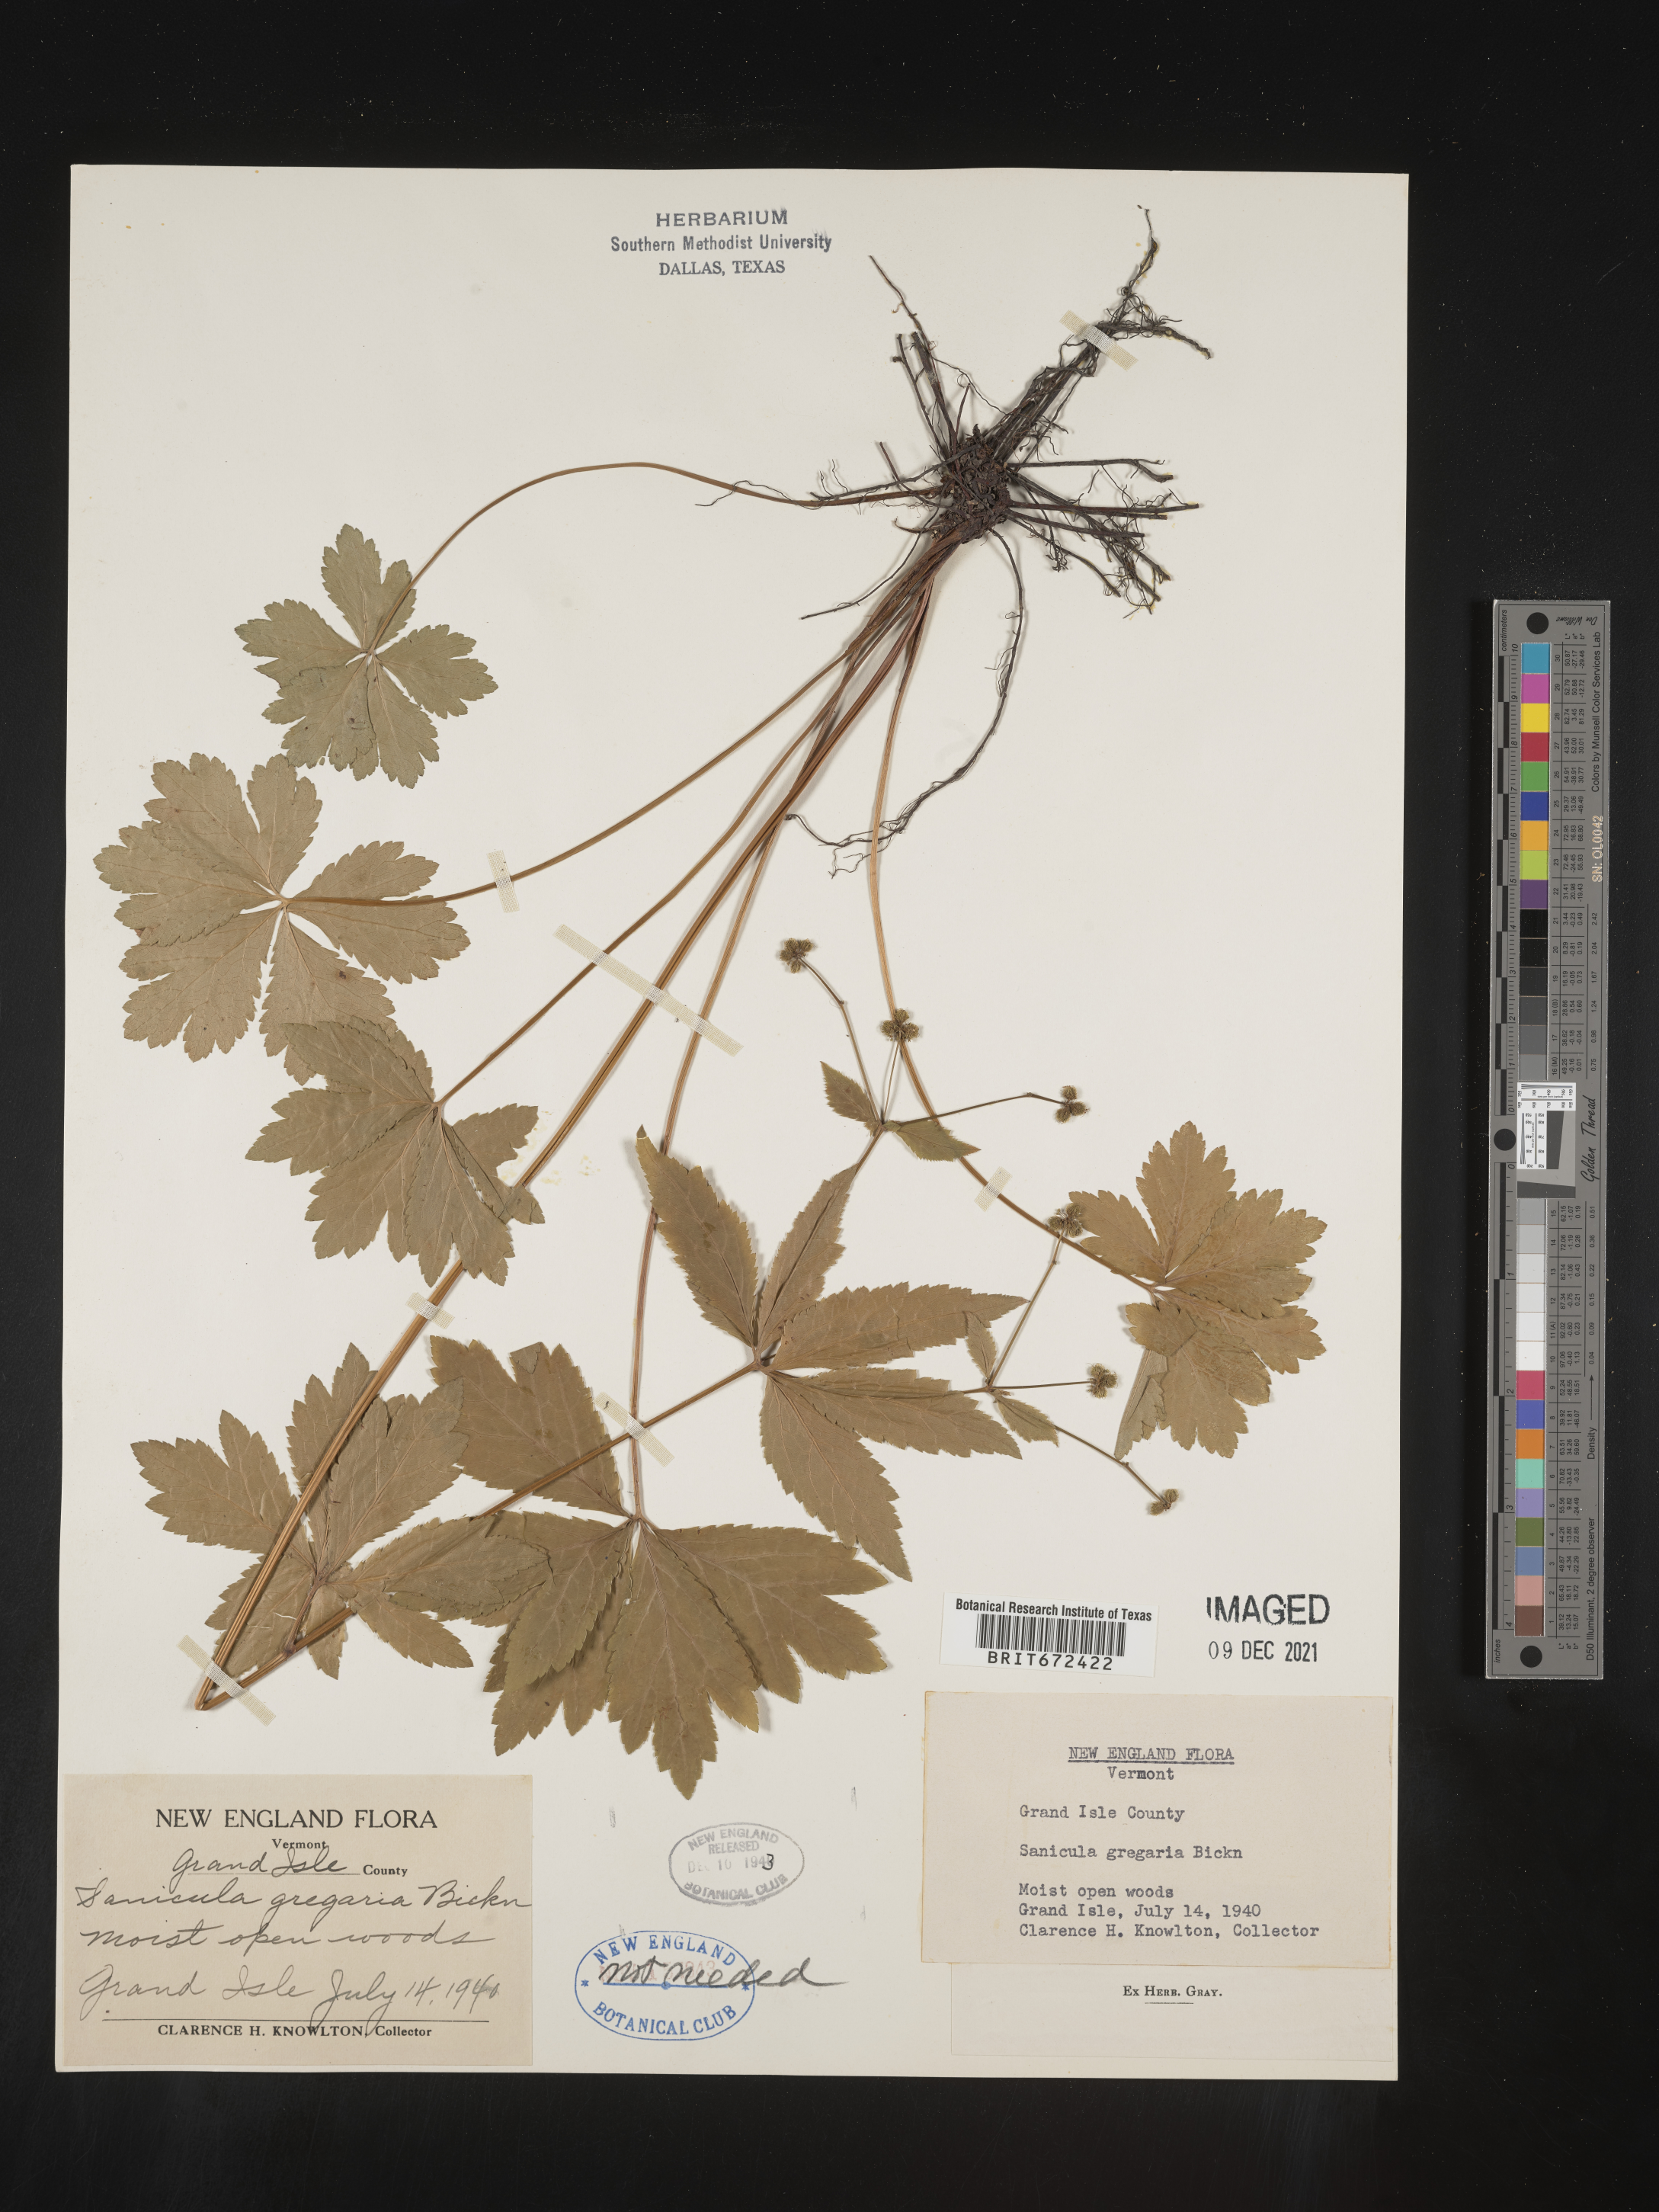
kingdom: Plantae
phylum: Tracheophyta
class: Magnoliopsida
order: Apiales
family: Apiaceae
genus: Sanicula
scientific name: Sanicula odorata
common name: Cluster sanicle
